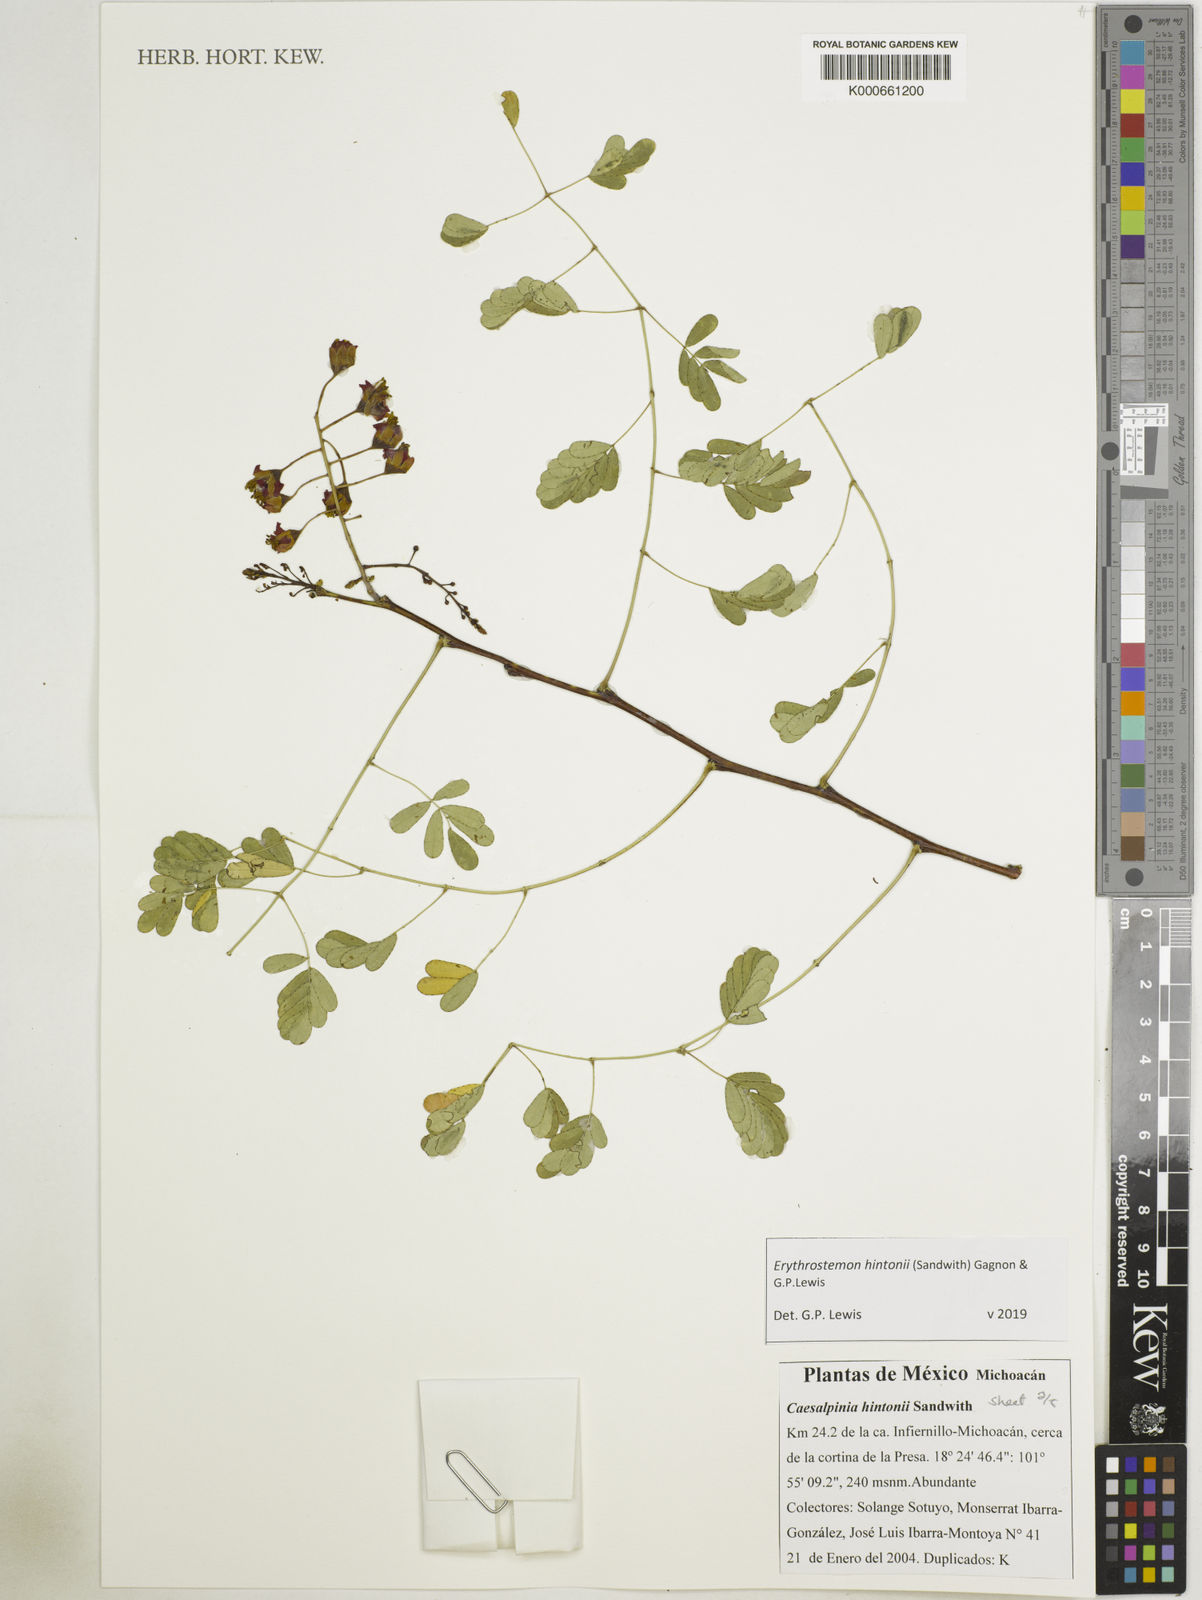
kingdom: Plantae
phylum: Tracheophyta
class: Magnoliopsida
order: Fabales
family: Fabaceae
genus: Erythrostemon
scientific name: Erythrostemon hintonii
